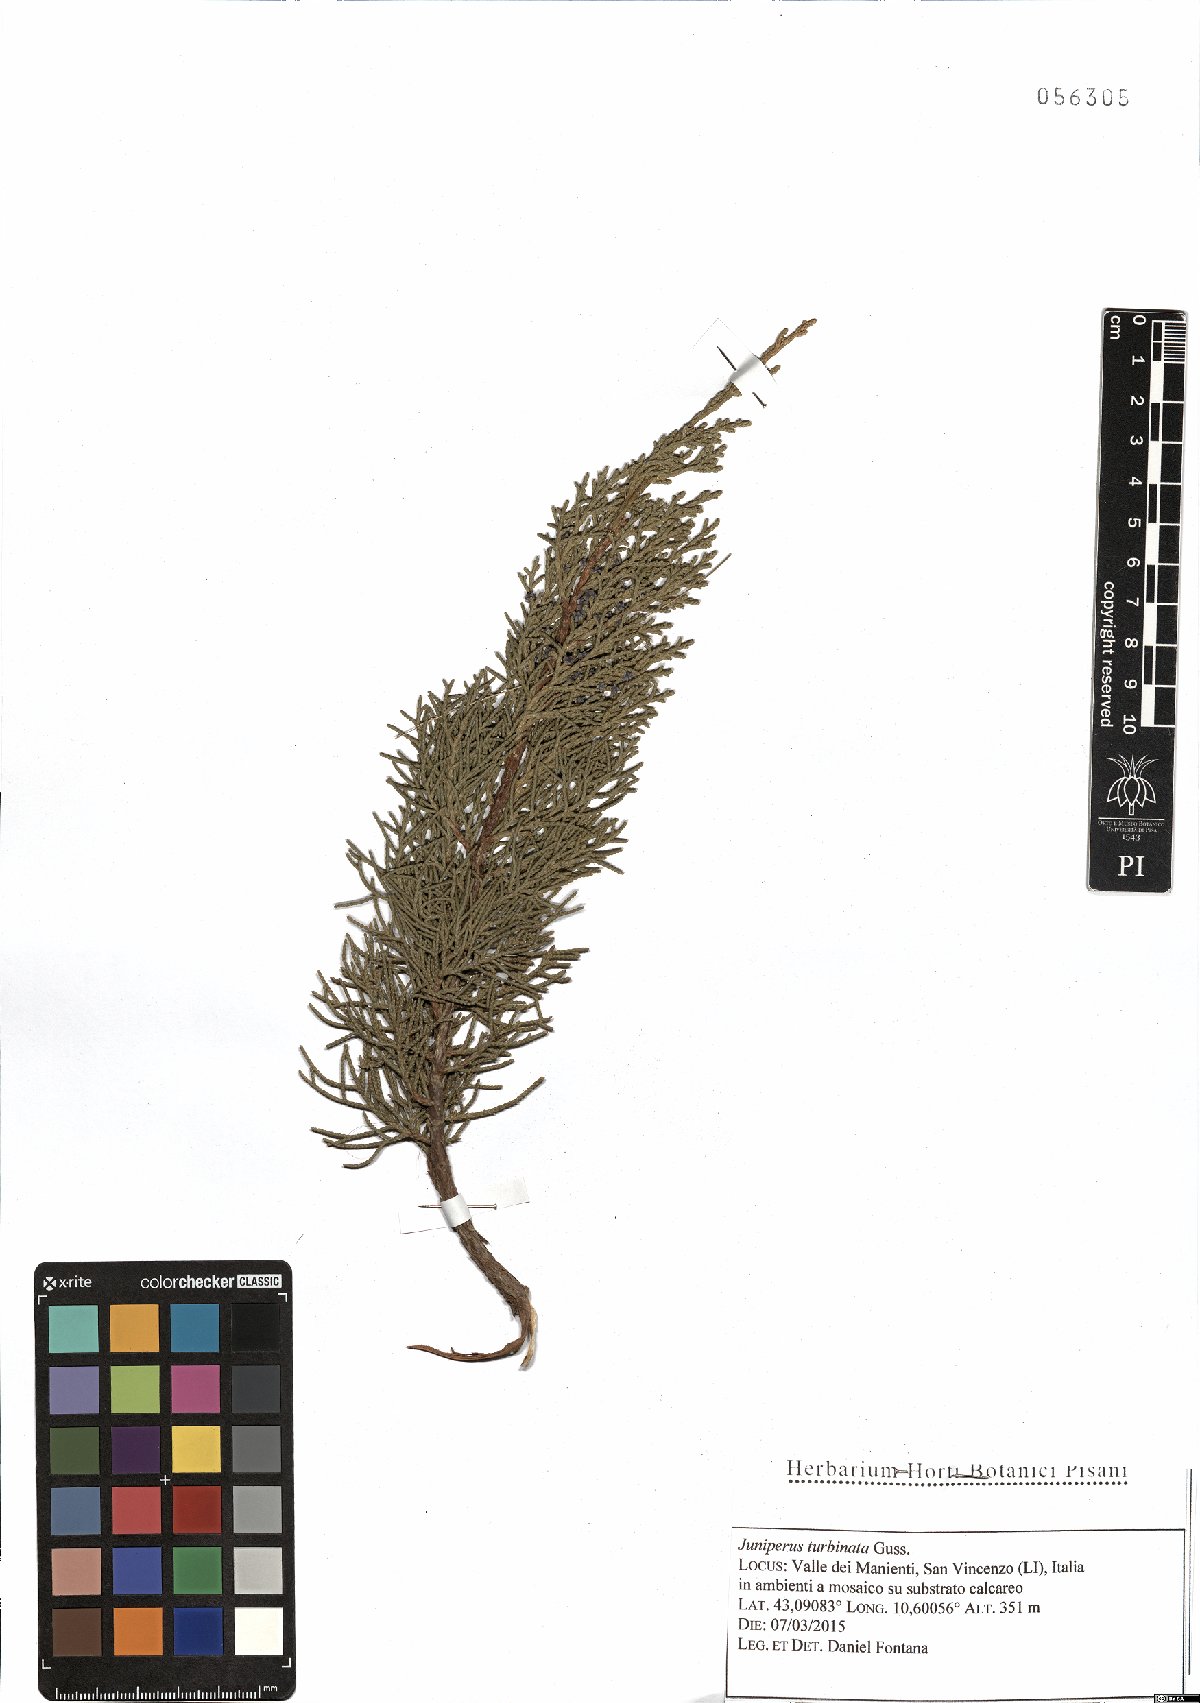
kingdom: Plantae
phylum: Tracheophyta
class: Pinopsida
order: Pinales
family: Cupressaceae
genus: Juniperus
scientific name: Juniperus phoenicea
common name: Phoenician juniper
